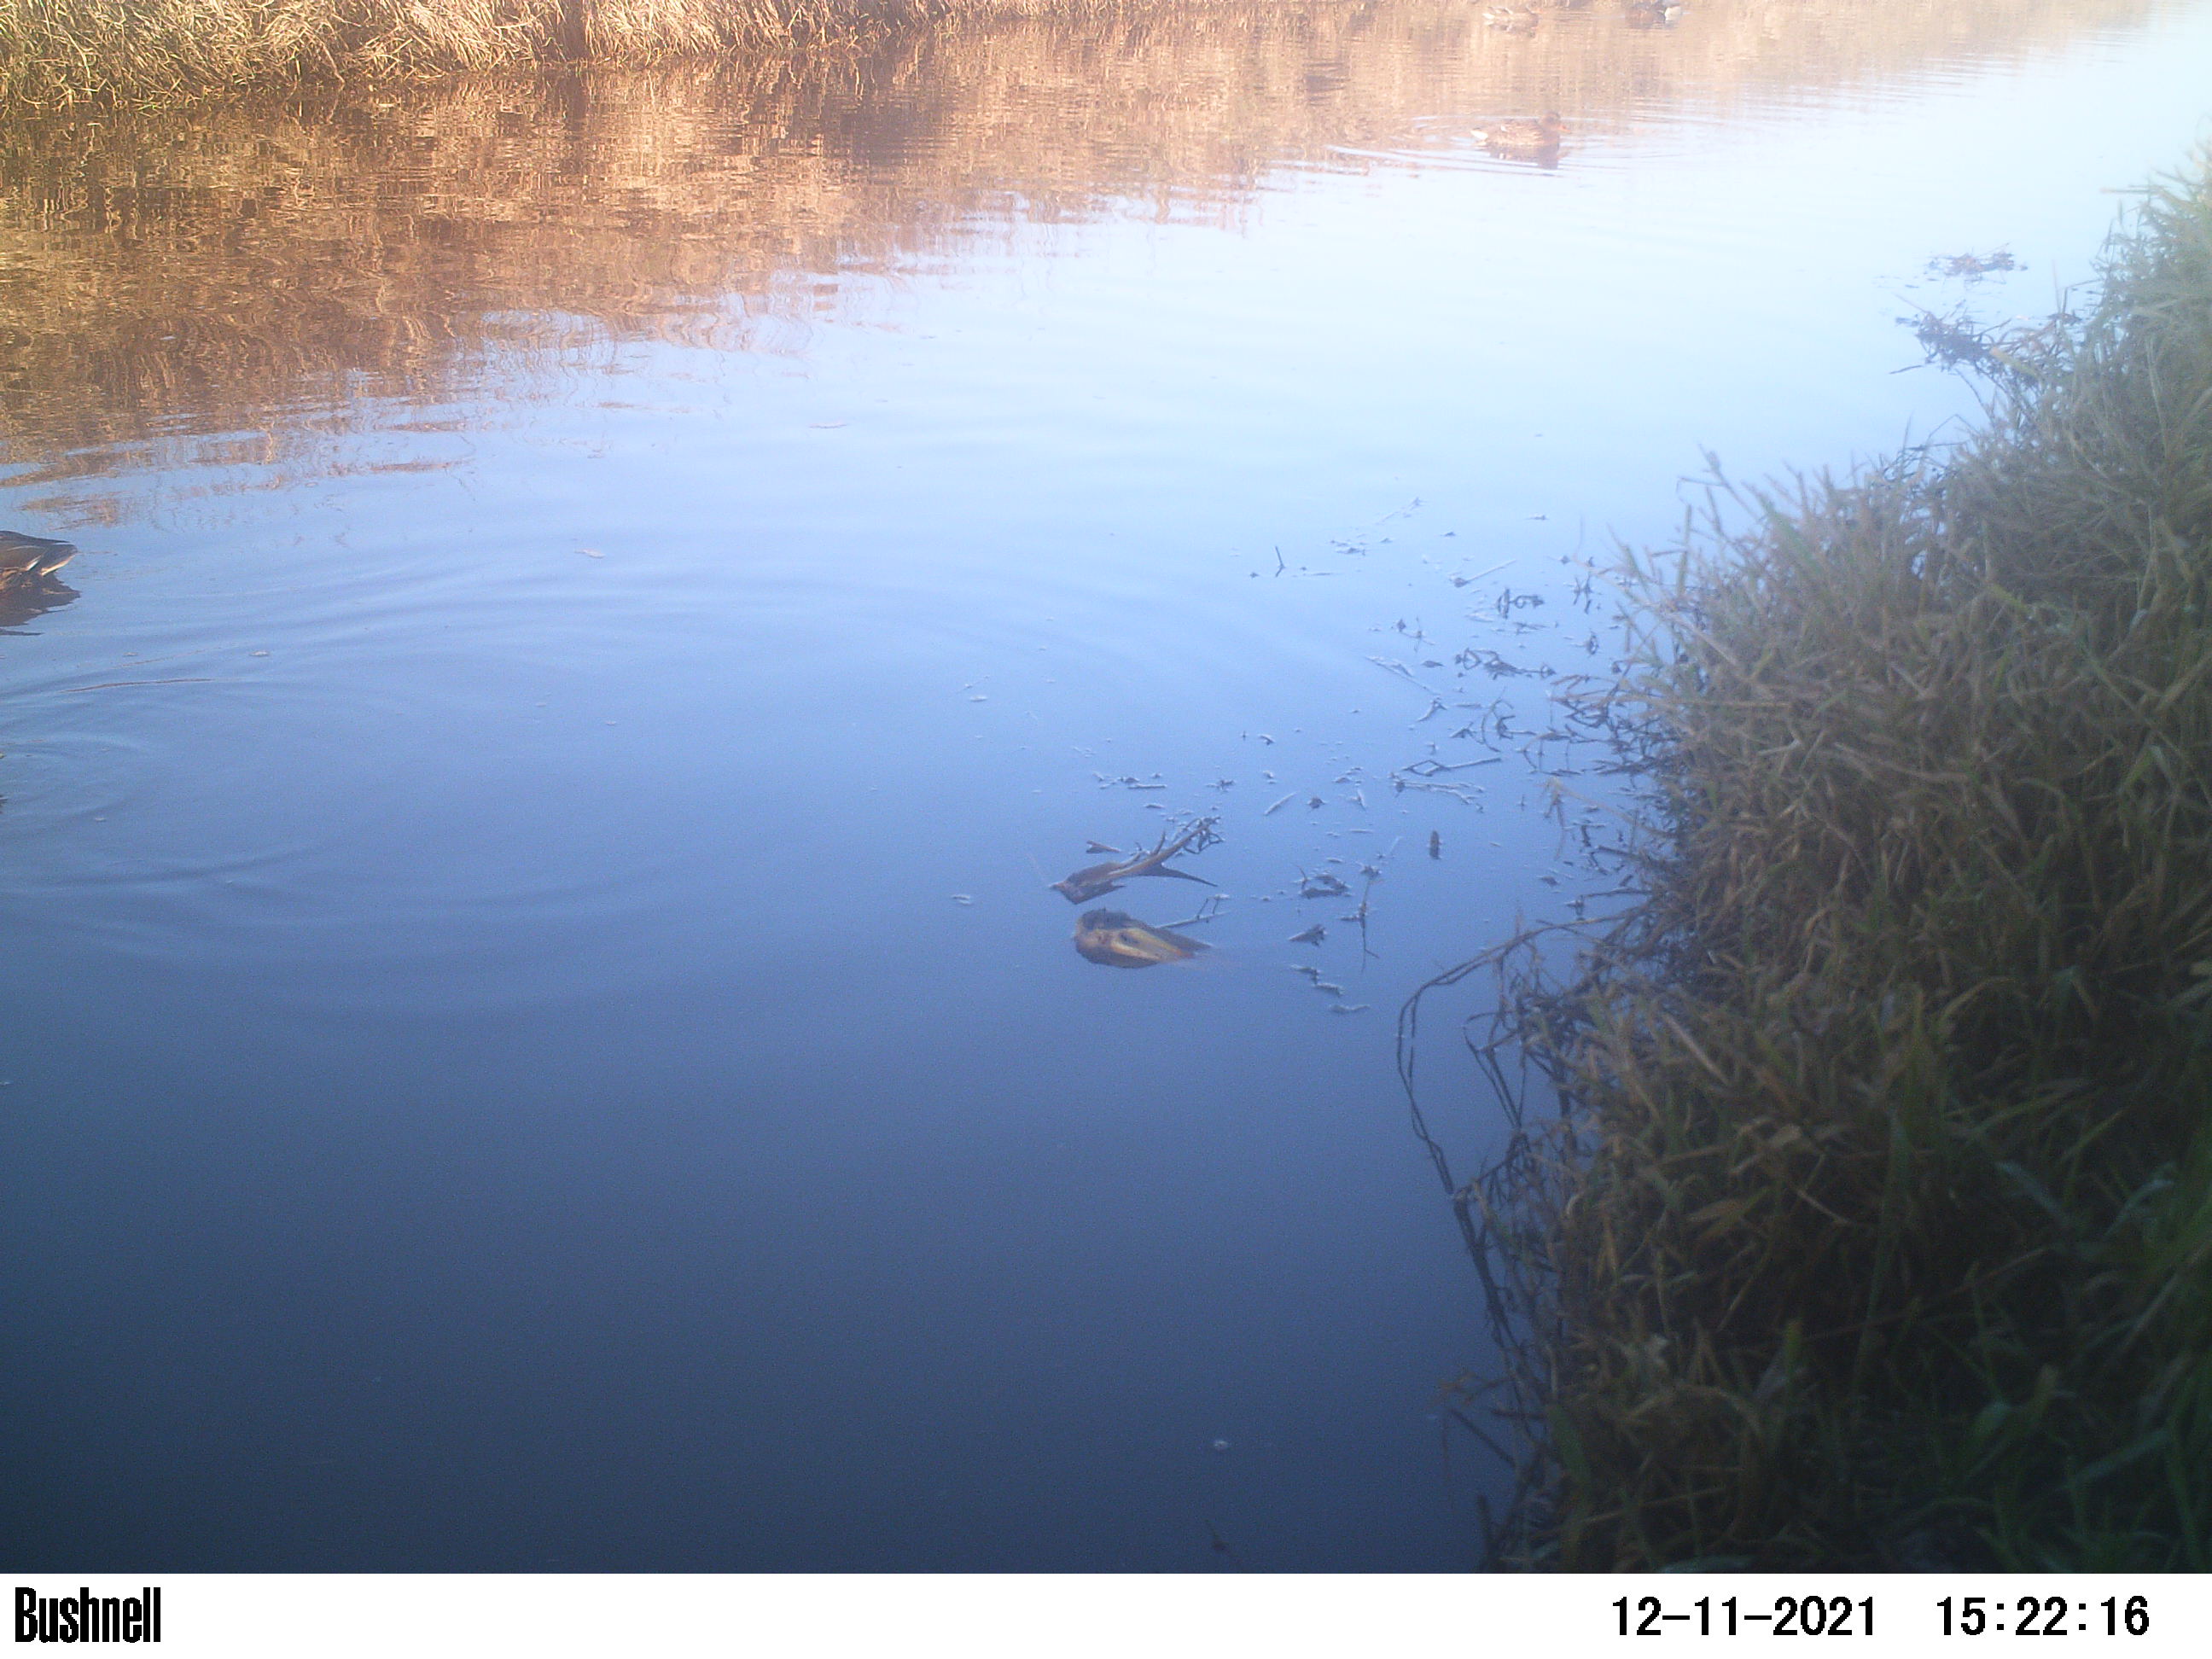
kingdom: Animalia
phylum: Chordata
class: Aves
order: Anseriformes
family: Anatidae
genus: Anas
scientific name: Anas
